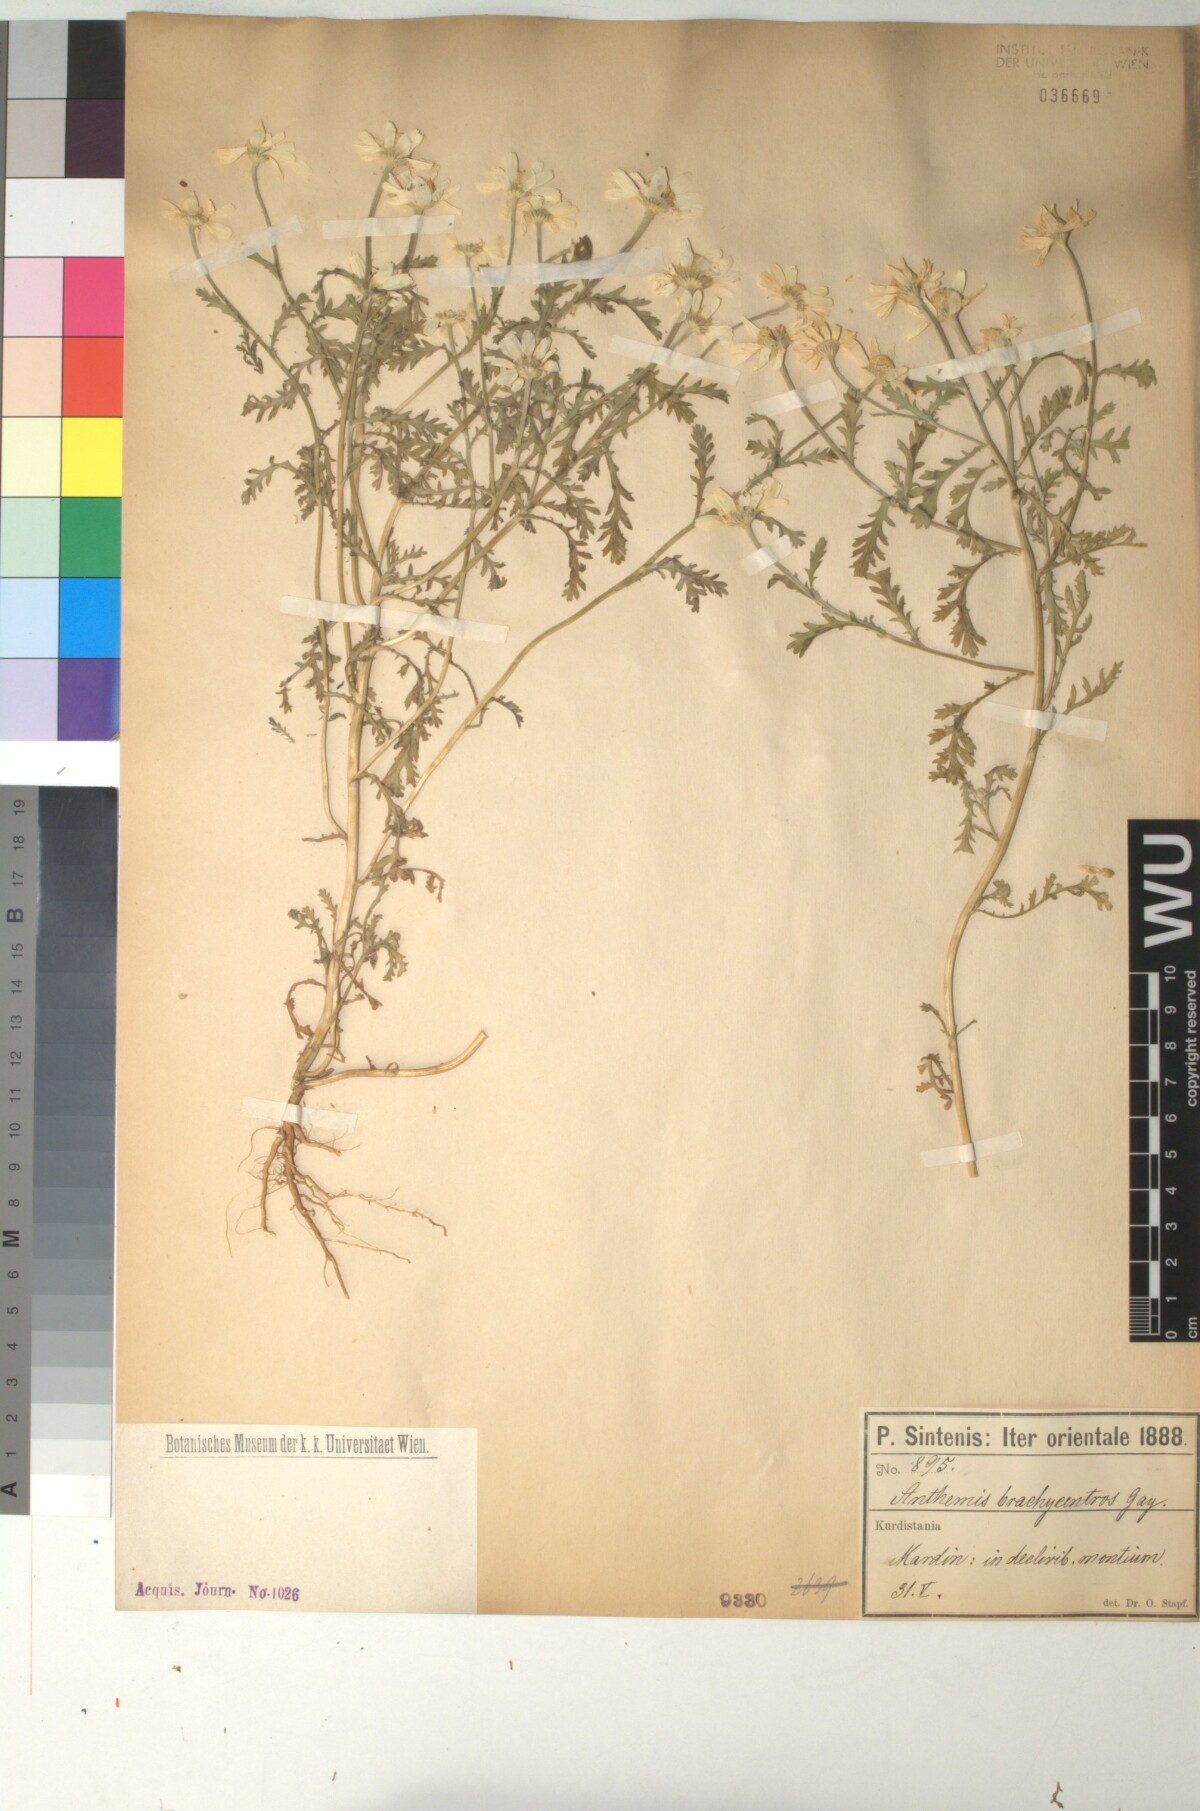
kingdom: Plantae
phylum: Tracheophyta
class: Magnoliopsida
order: Asterales
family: Asteraceae
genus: Cota
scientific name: Cota segetalis
